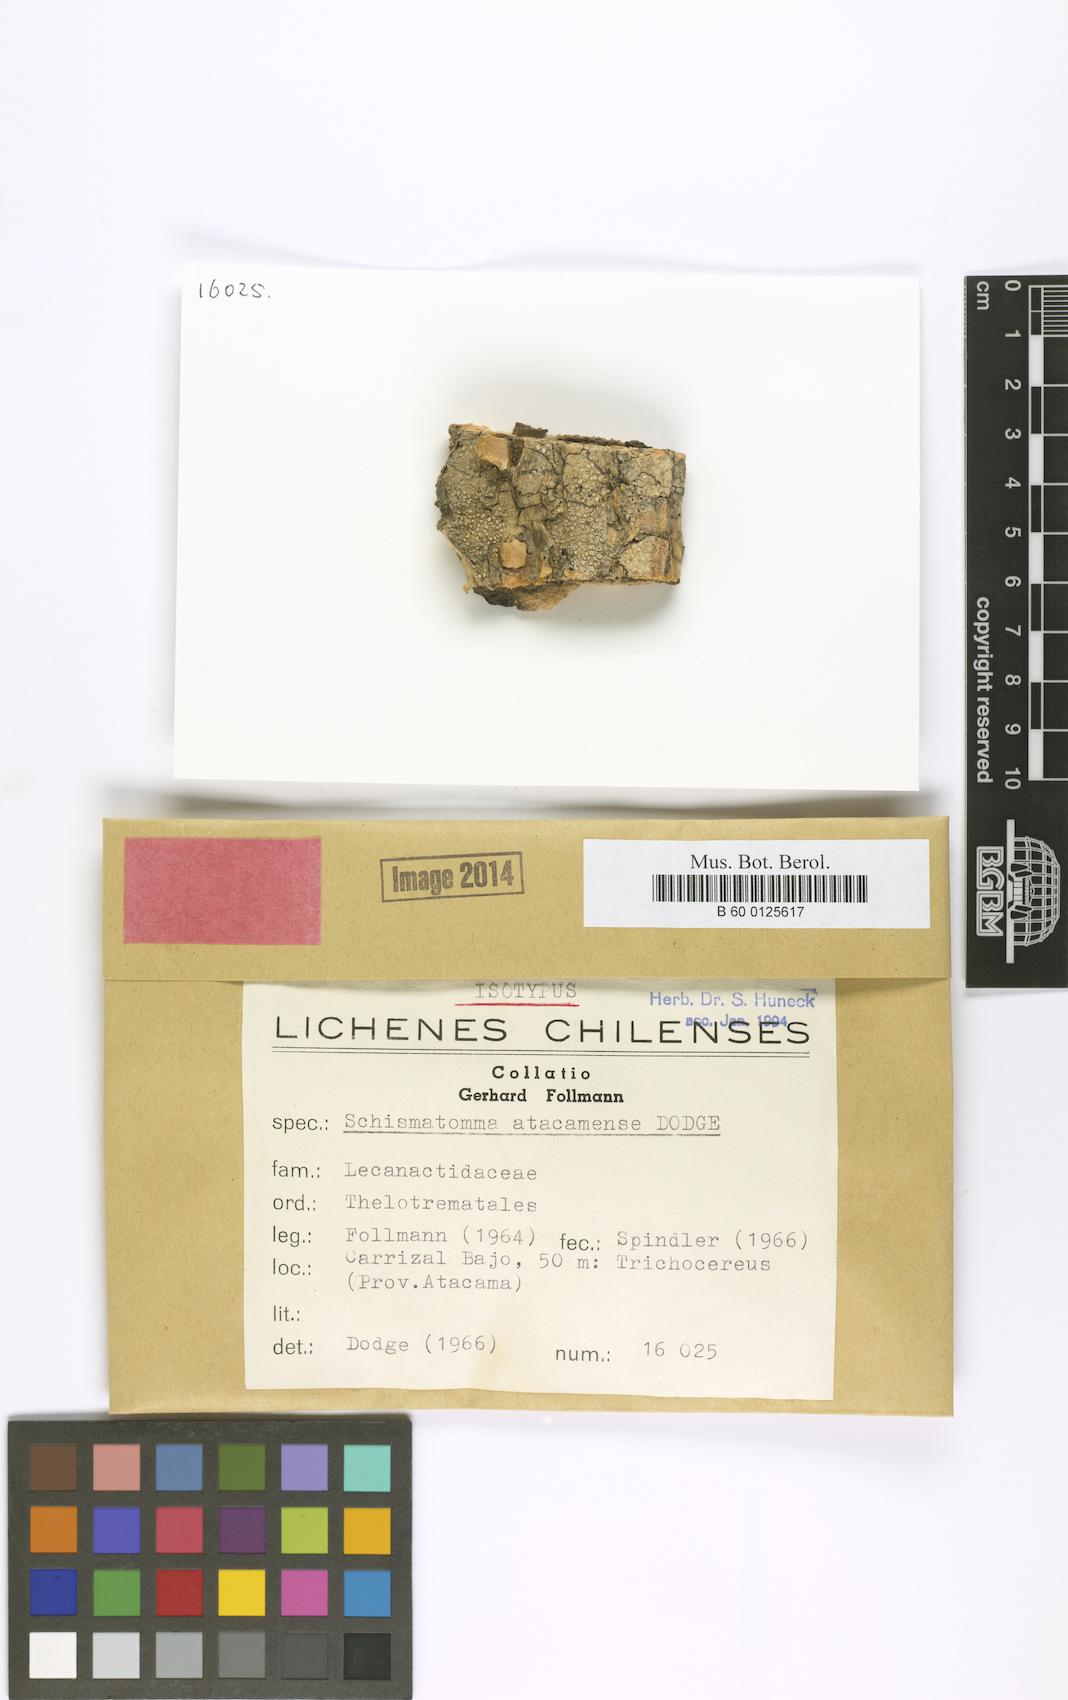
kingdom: Fungi
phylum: Ascomycota
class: Arthoniomycetes
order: Arthoniales
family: Roccellaceae
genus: Schismatomma
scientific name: Schismatomma
